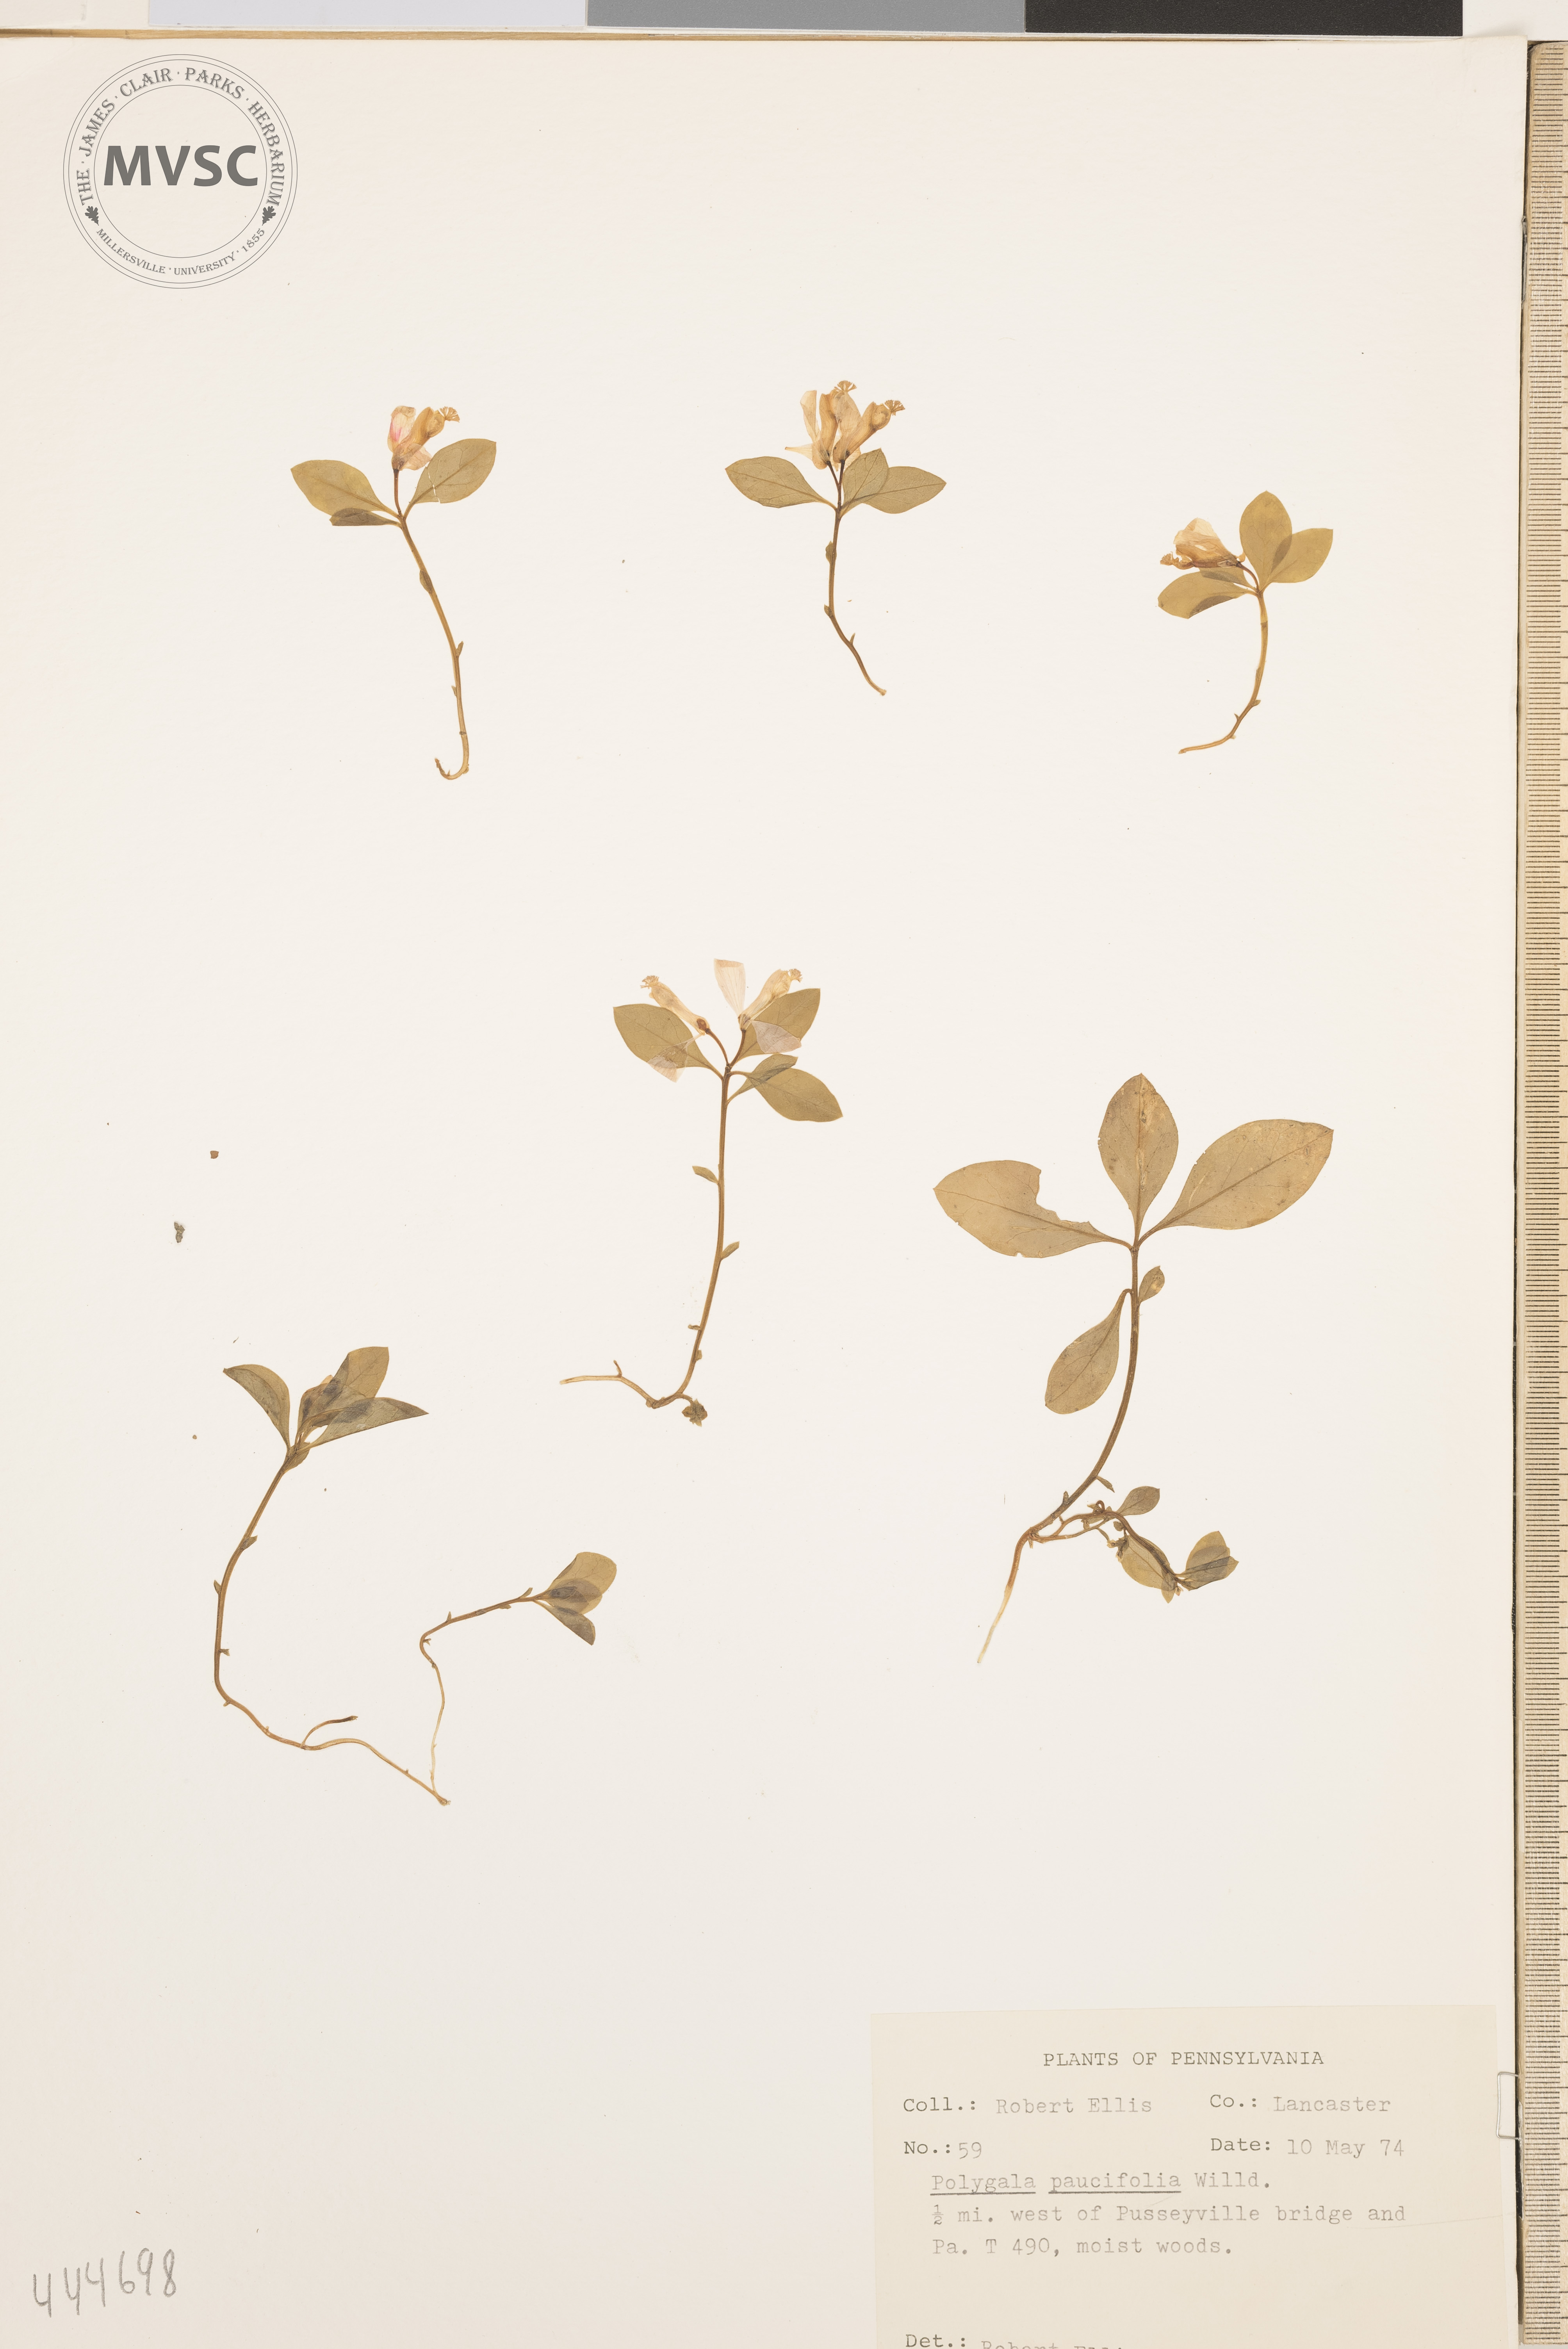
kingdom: Plantae
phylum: Tracheophyta
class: Magnoliopsida
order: Fabales
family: Polygalaceae
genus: Polygaloides
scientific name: Polygaloides paucifolia
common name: Bird-on-the-wing
